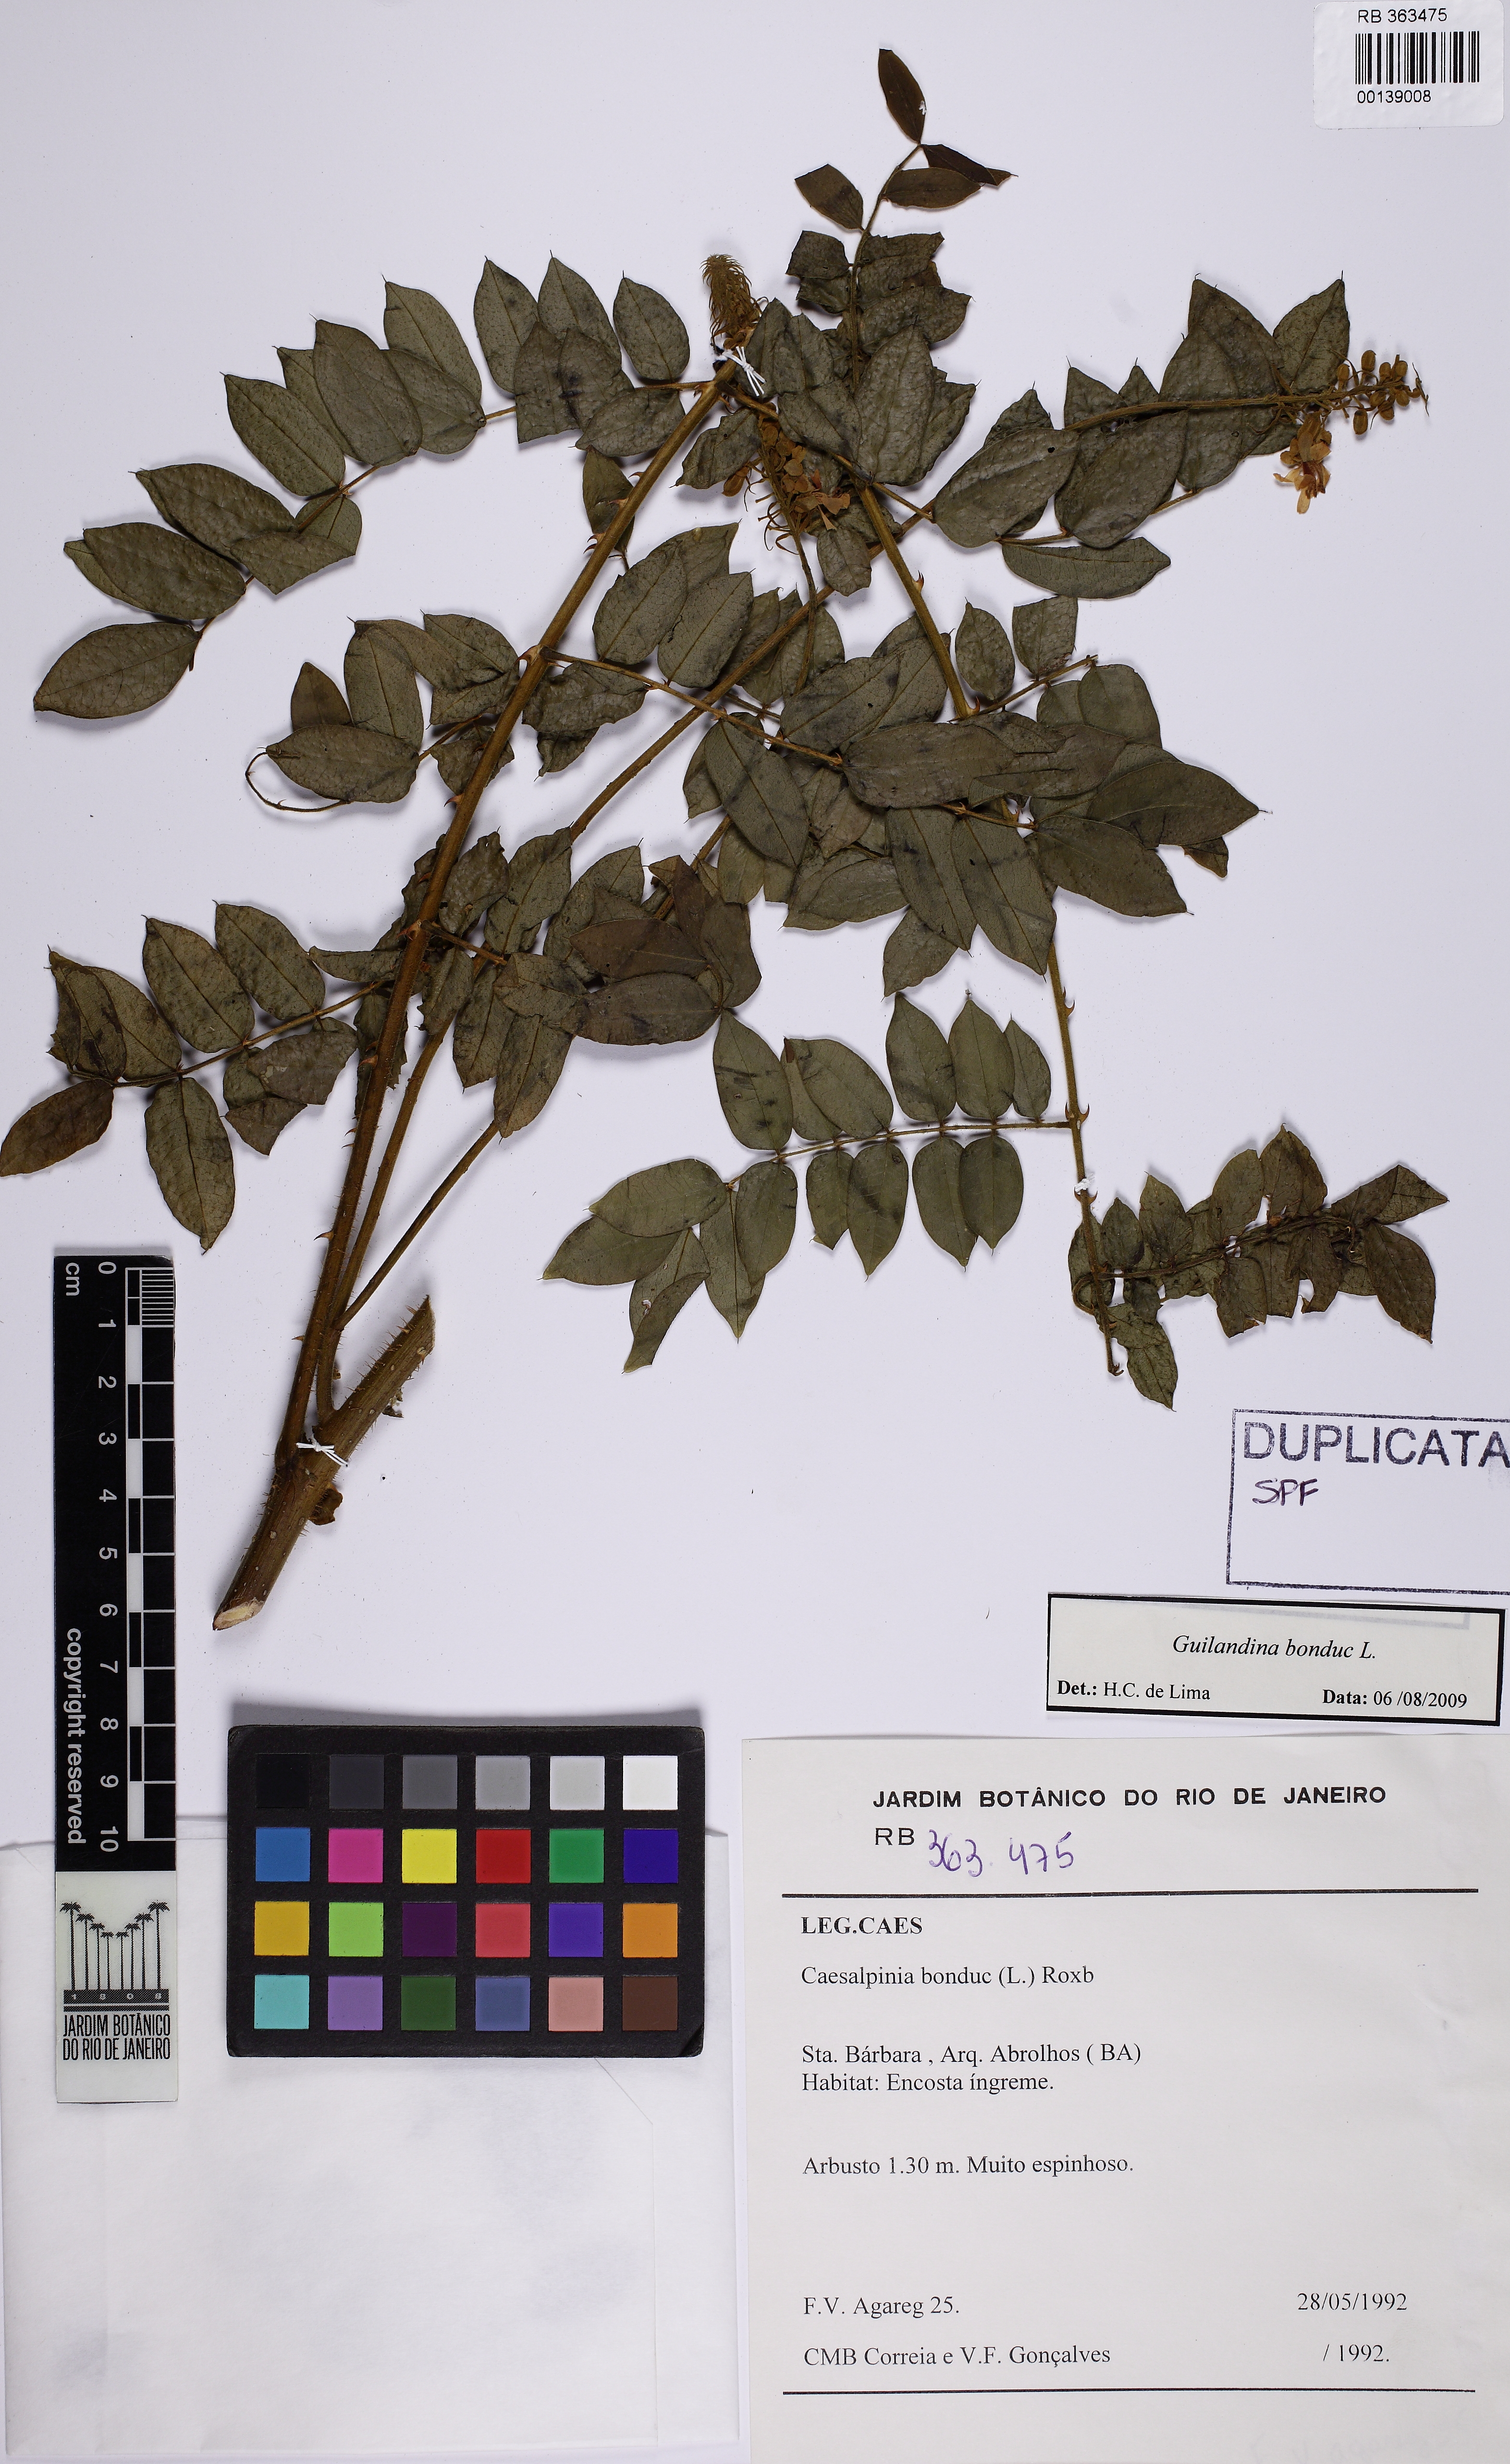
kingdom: Plantae
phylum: Tracheophyta
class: Magnoliopsida
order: Fabales
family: Fabaceae
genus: Guilandina
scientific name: Guilandina bonduc
